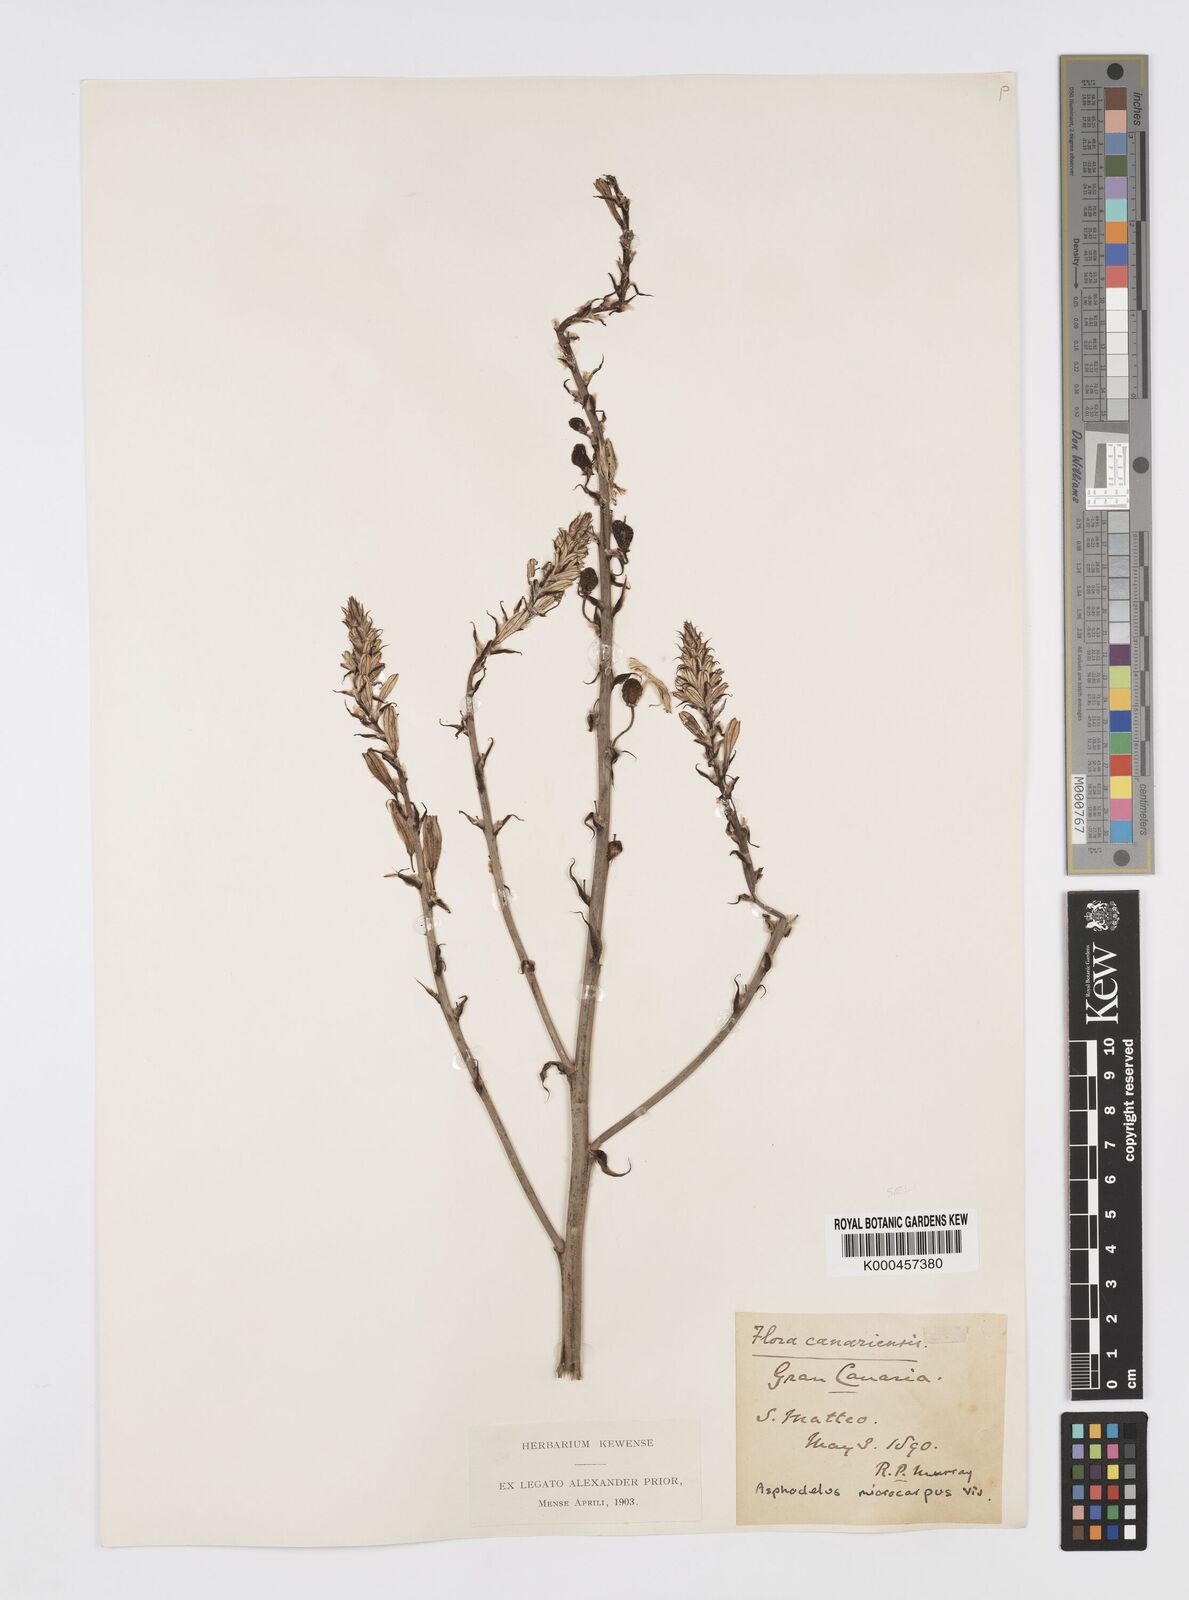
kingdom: Plantae
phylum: Tracheophyta
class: Liliopsida
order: Asparagales
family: Asphodelaceae
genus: Asphodelus
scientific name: Asphodelus aestivus
